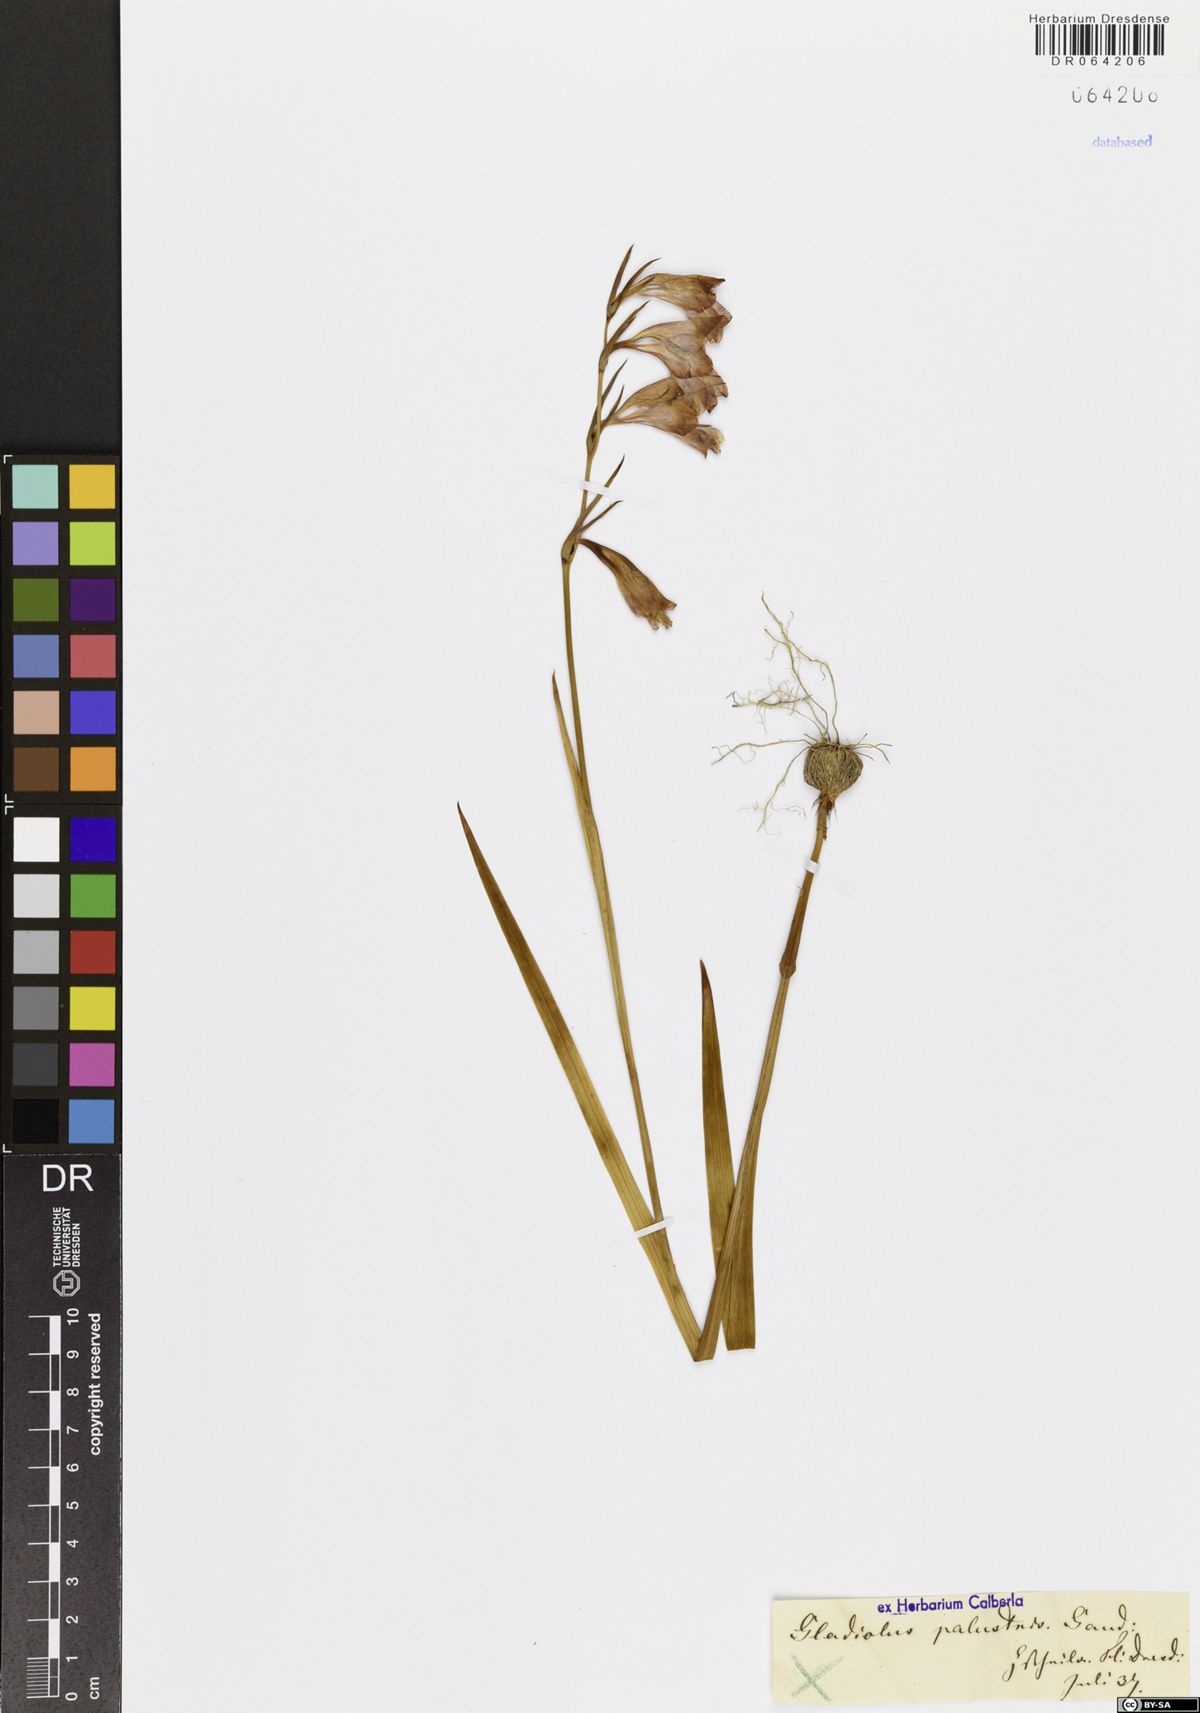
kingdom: Plantae
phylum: Tracheophyta
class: Liliopsida
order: Asparagales
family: Iridaceae
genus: Gladiolus
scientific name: Gladiolus palustris
